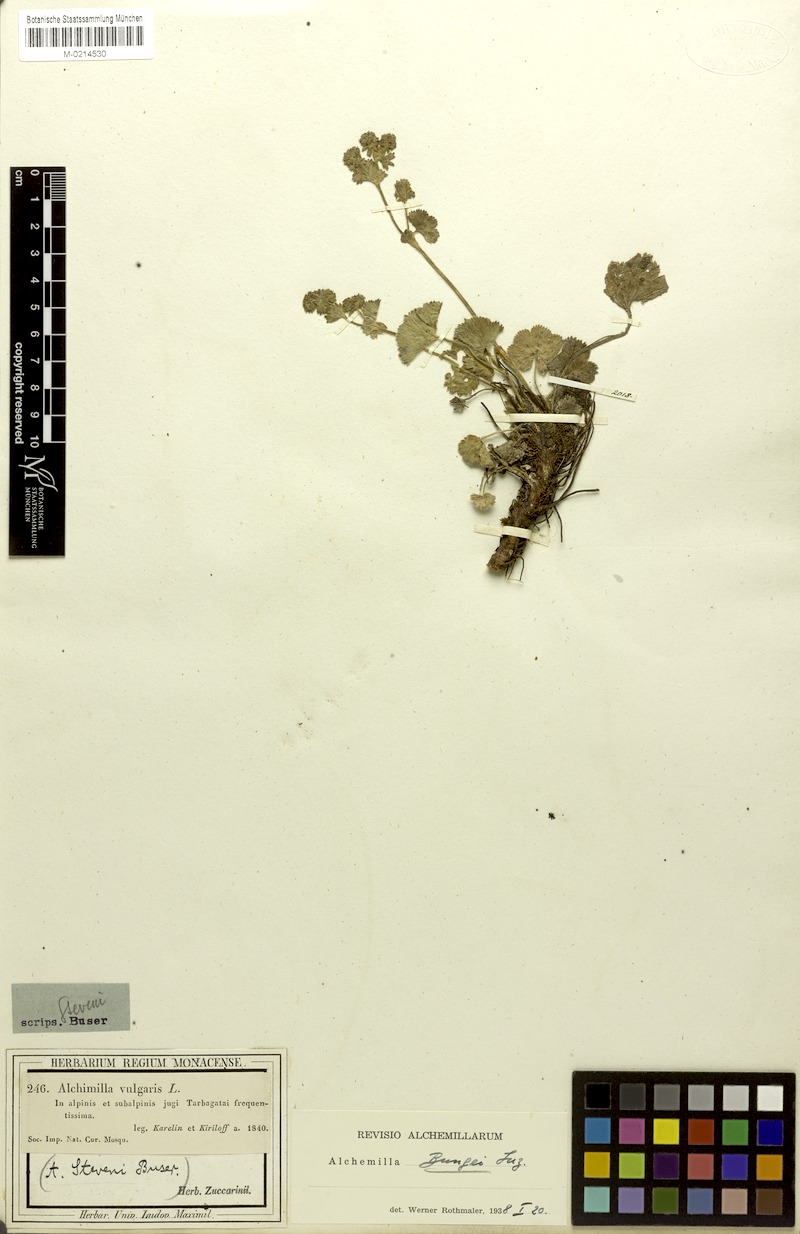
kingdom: Plantae
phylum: Tracheophyta
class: Magnoliopsida
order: Rosales
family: Rosaceae
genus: Alchemilla
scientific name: Alchemilla bungei
